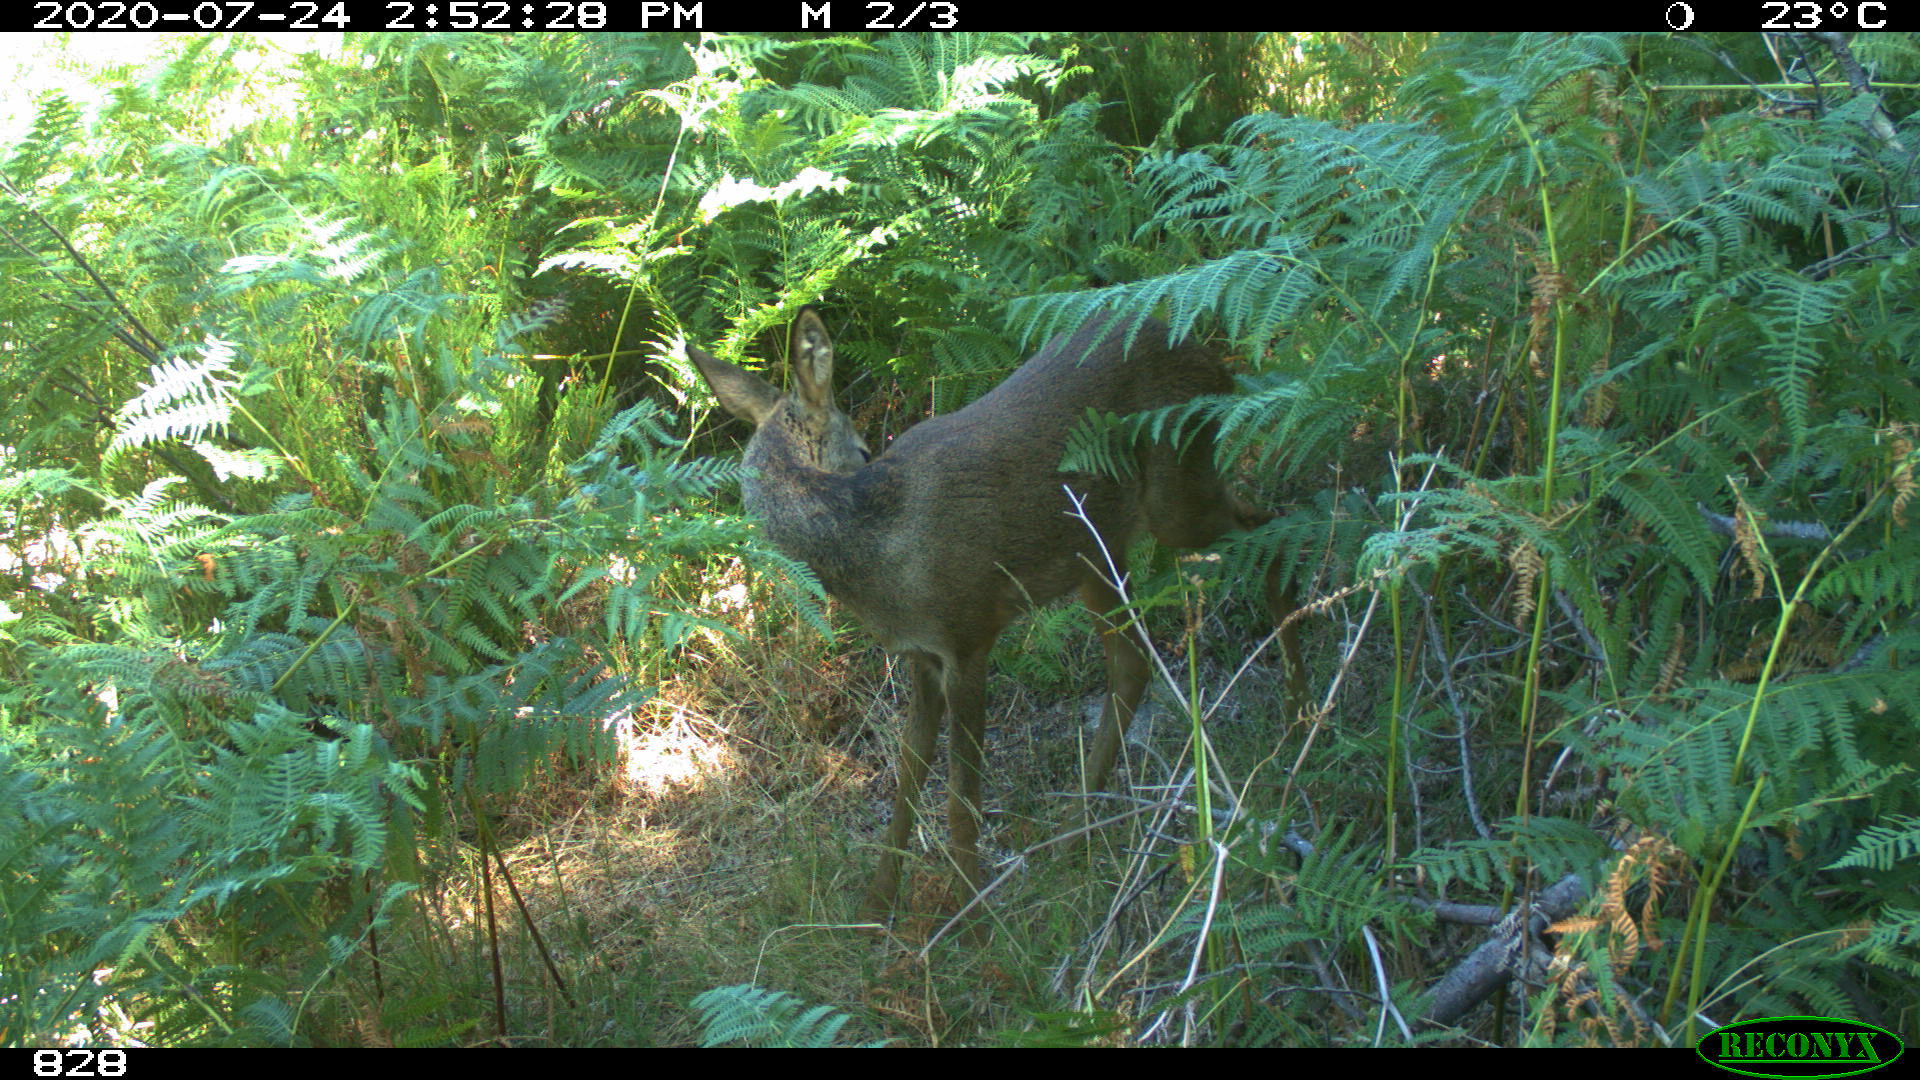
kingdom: Animalia
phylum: Chordata
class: Mammalia
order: Artiodactyla
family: Cervidae
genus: Capreolus
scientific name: Capreolus capreolus
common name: Western roe deer
